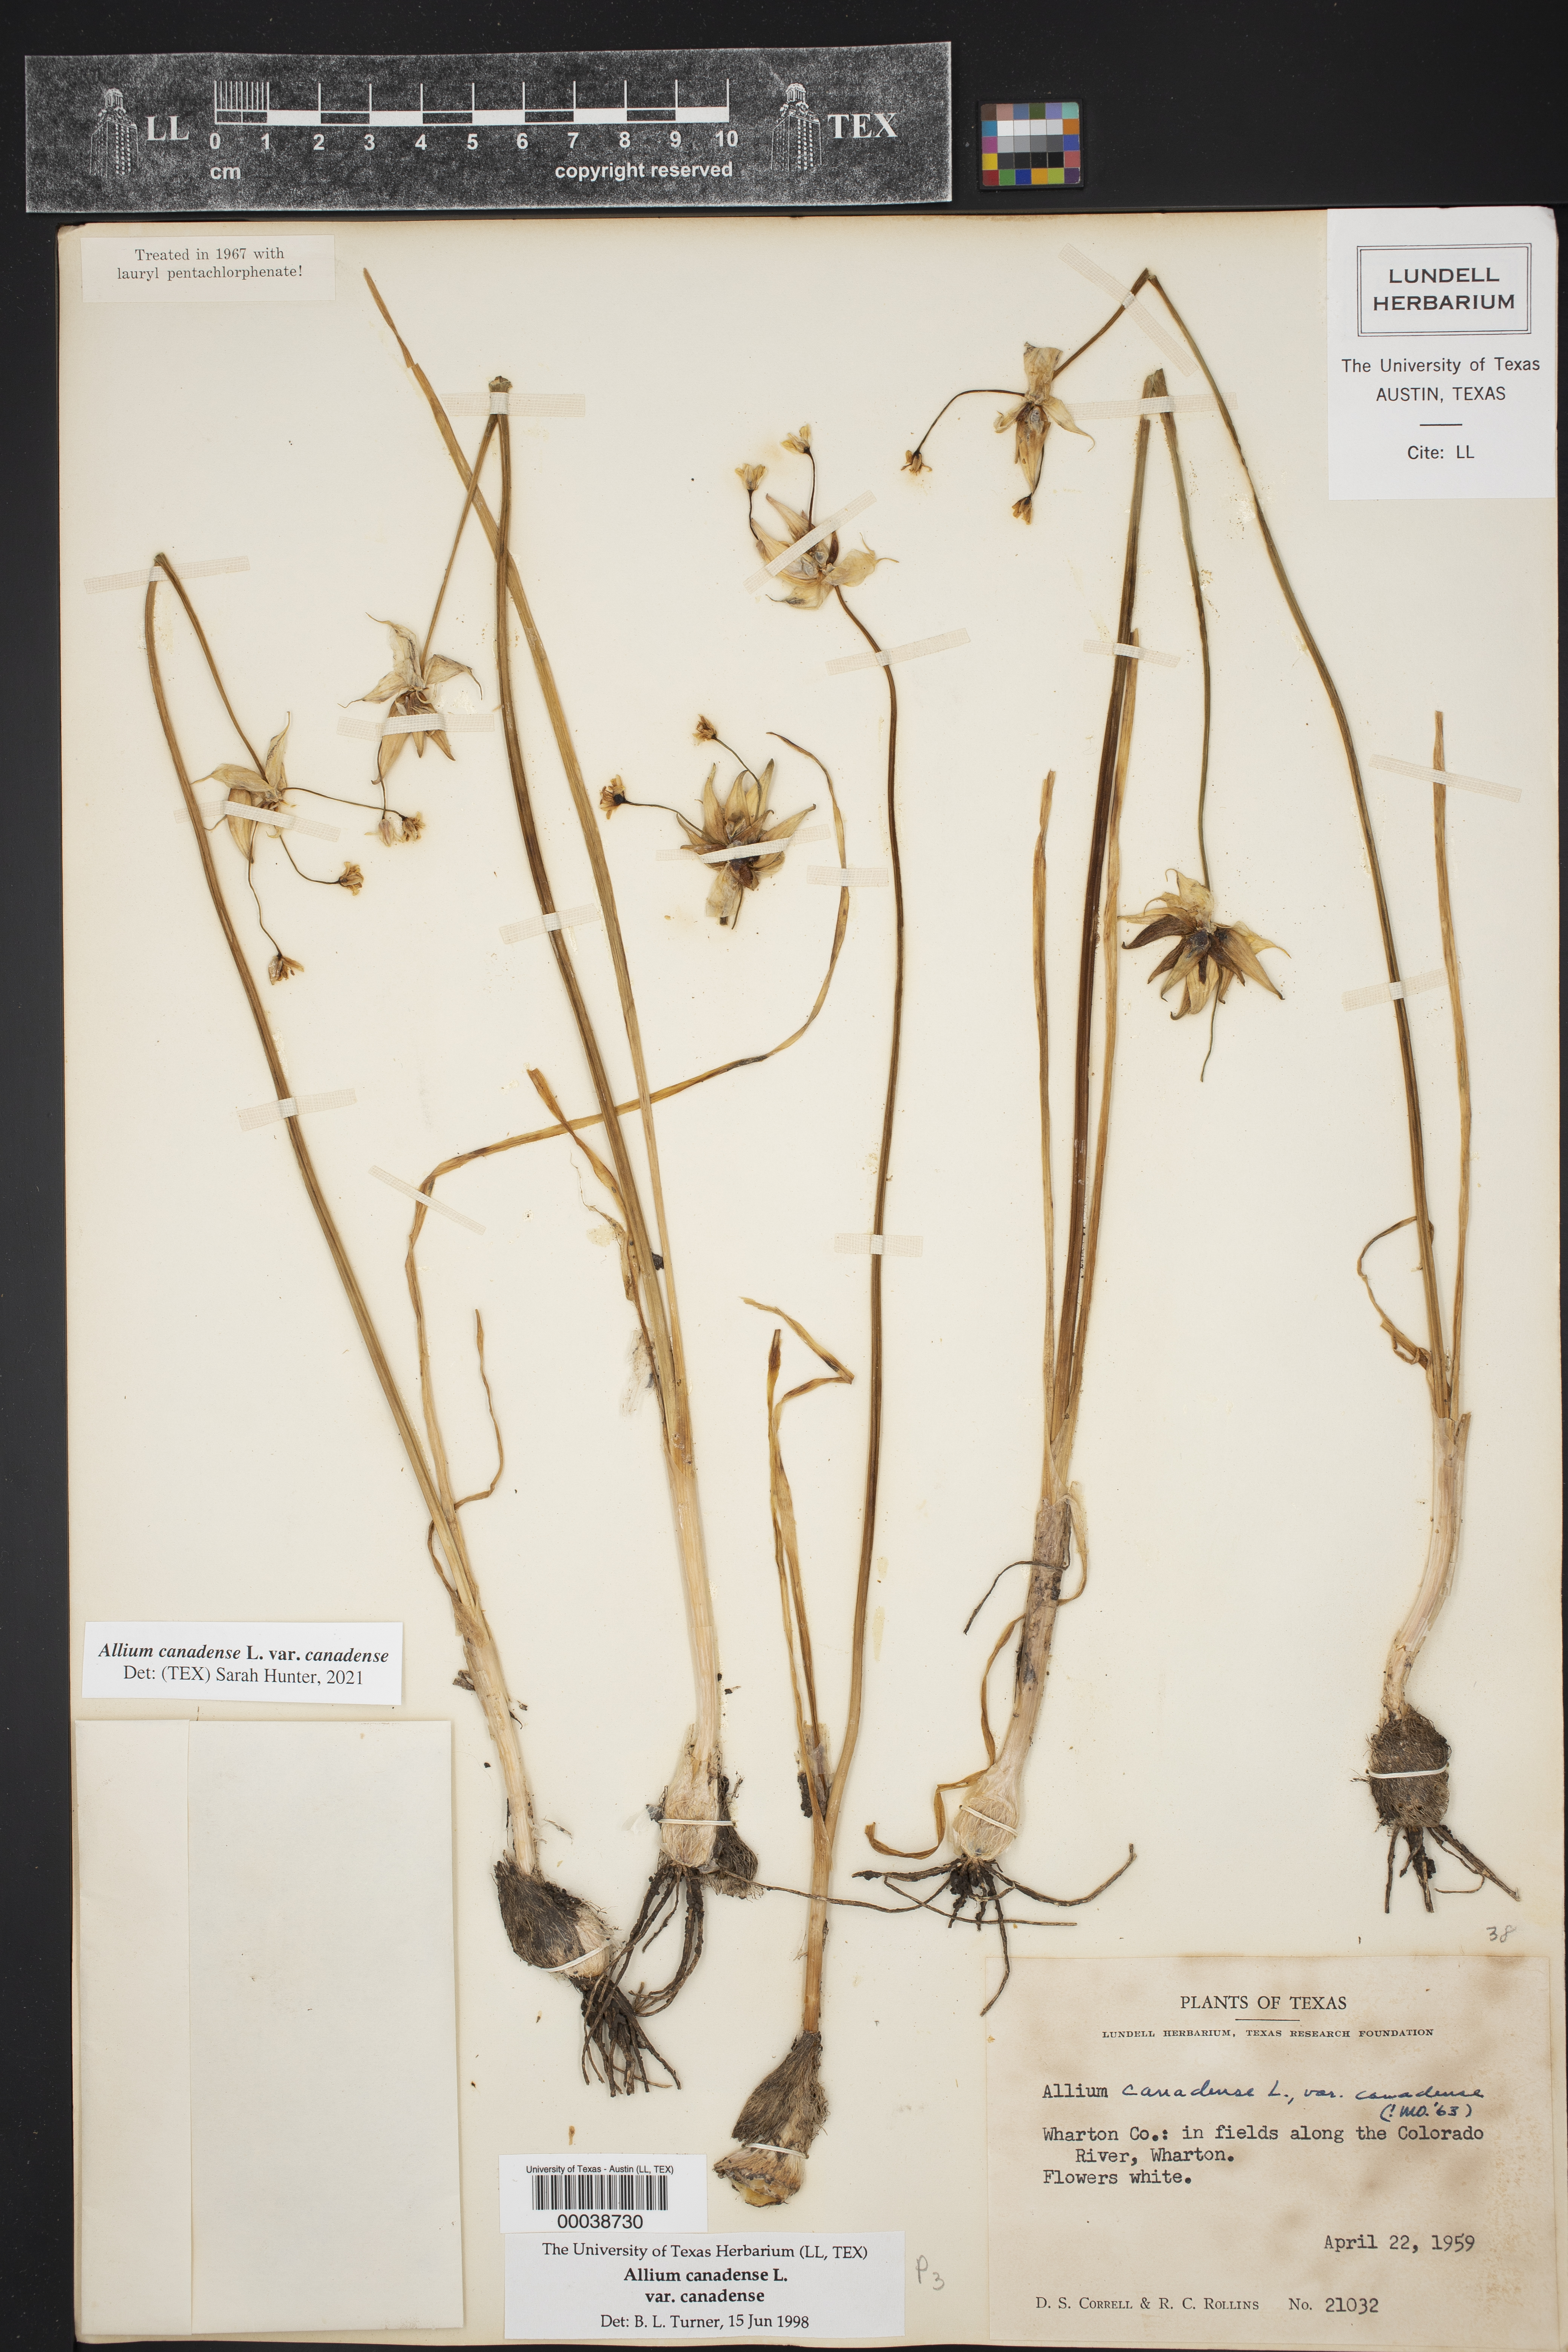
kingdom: Plantae
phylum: Tracheophyta
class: Liliopsida
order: Asparagales
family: Amaryllidaceae
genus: Allium
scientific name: Allium canadense
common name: Meadow garlic
